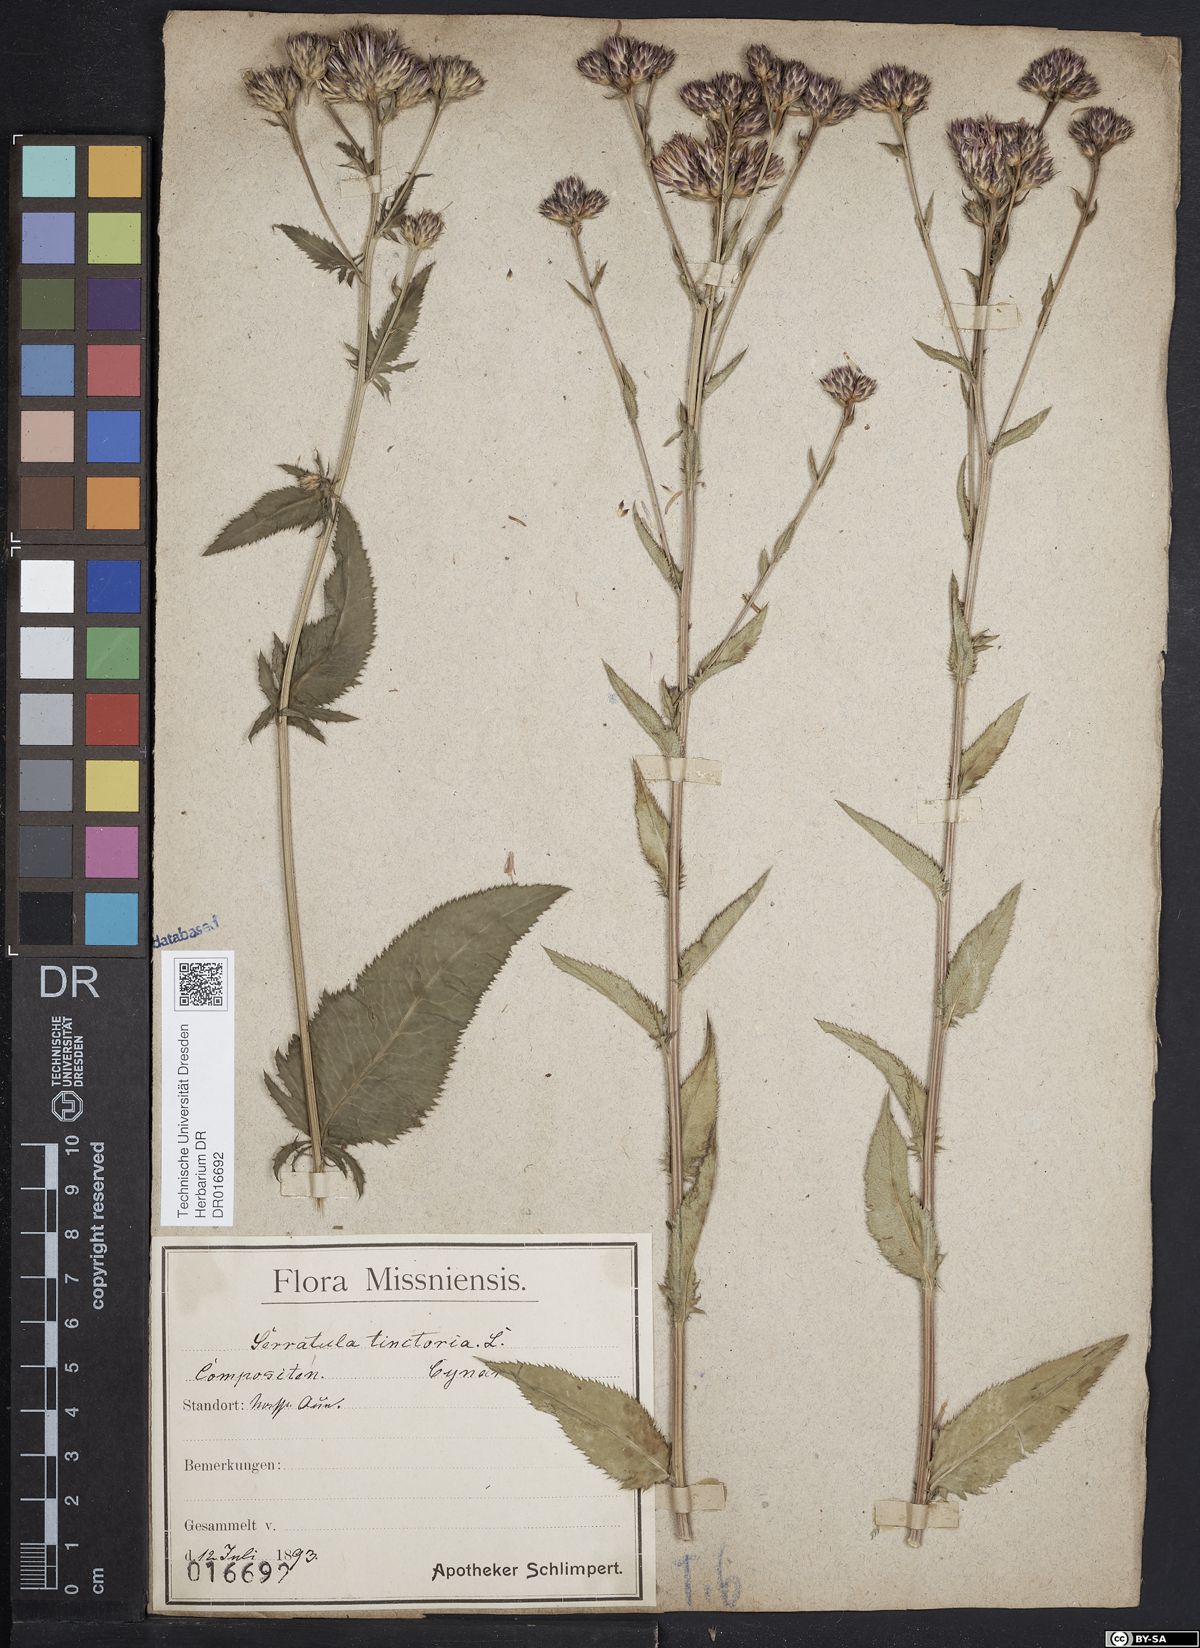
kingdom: Plantae
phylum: Tracheophyta
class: Magnoliopsida
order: Asterales
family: Asteraceae
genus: Serratula
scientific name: Serratula tinctoria
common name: Saw-wort
